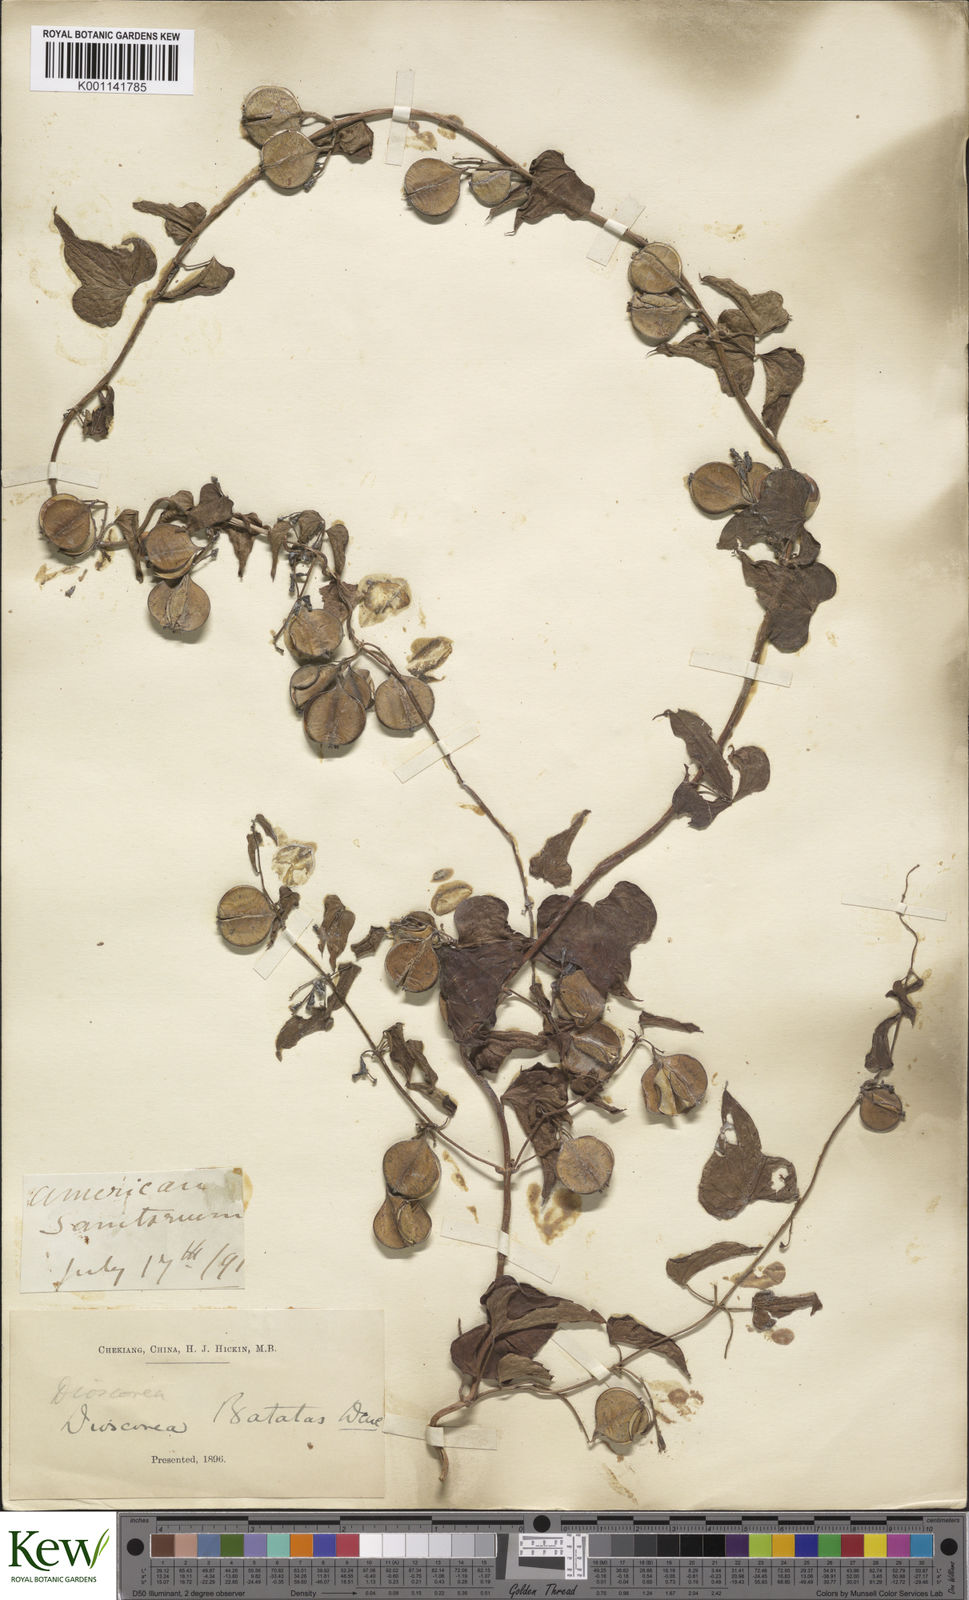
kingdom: Plantae
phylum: Tracheophyta
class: Liliopsida
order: Dioscoreales
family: Dioscoreaceae
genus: Dioscorea
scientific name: Dioscorea oppositifolia
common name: Chinese yam
